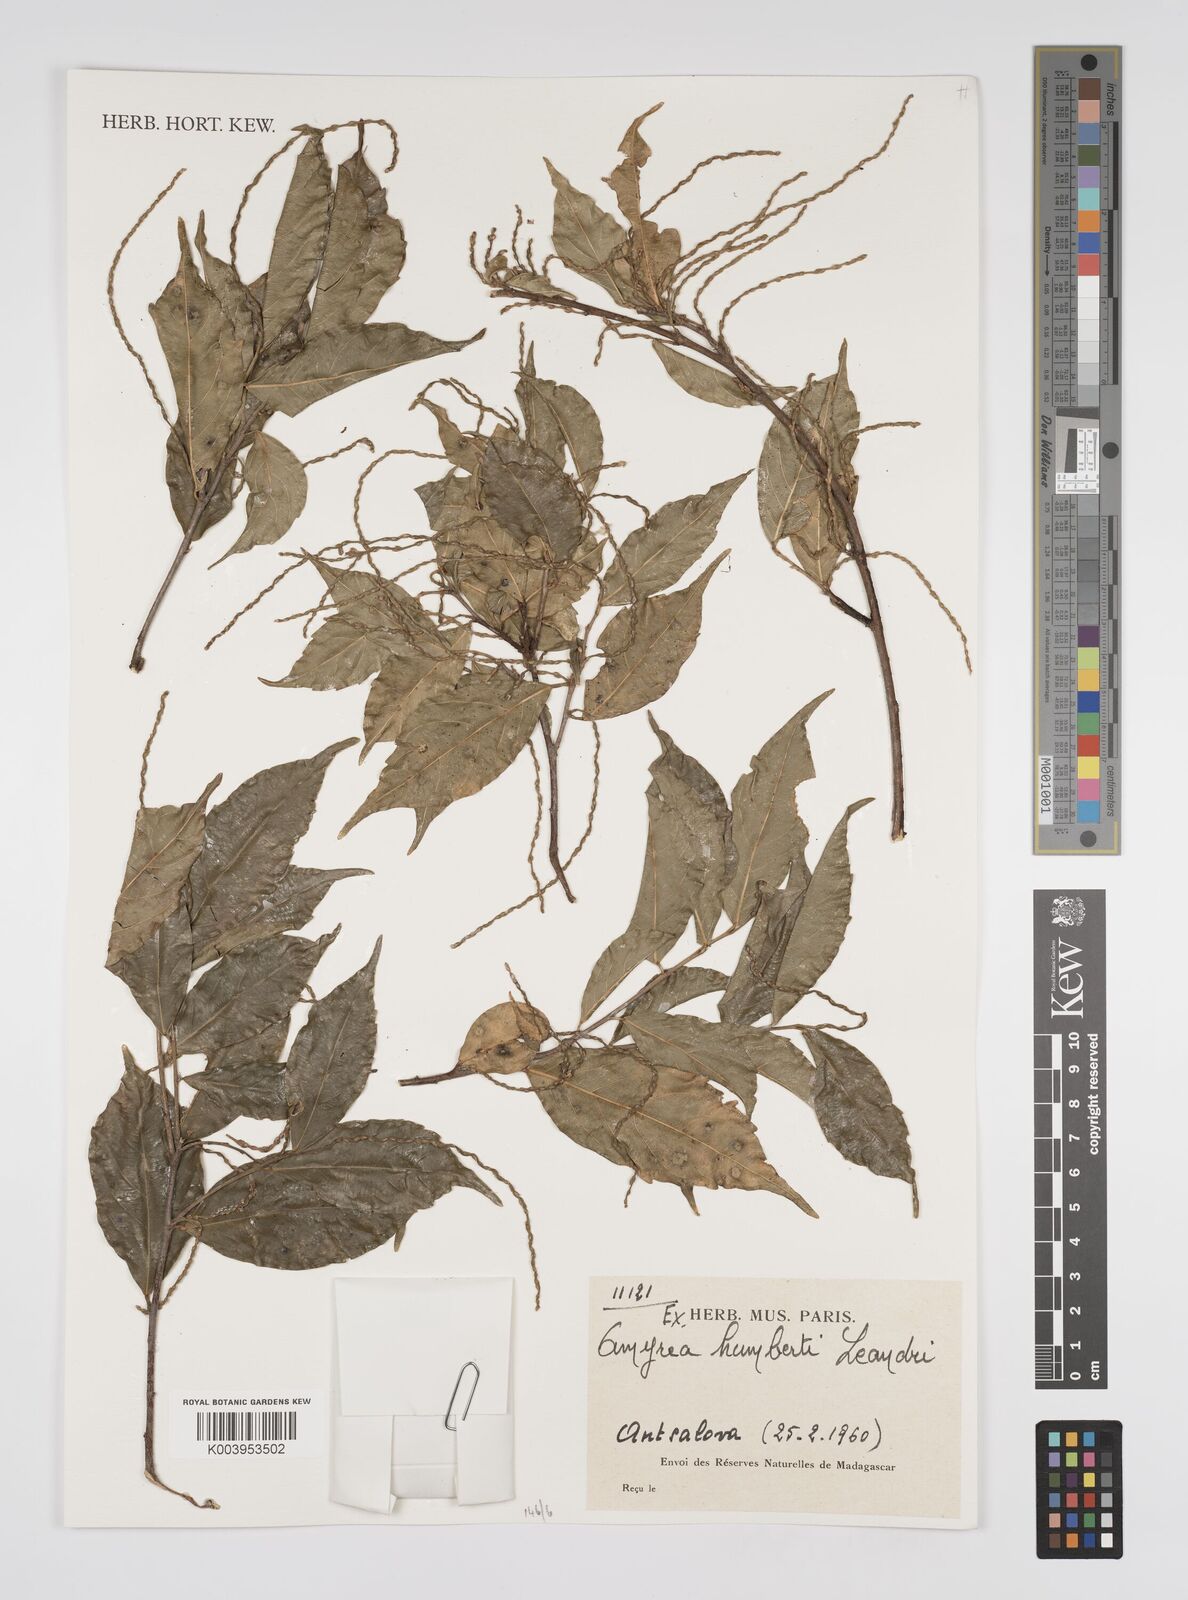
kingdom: Plantae
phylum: Tracheophyta
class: Magnoliopsida
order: Malpighiales
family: Euphorbiaceae
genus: Amyrea
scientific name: Amyrea humbertii
